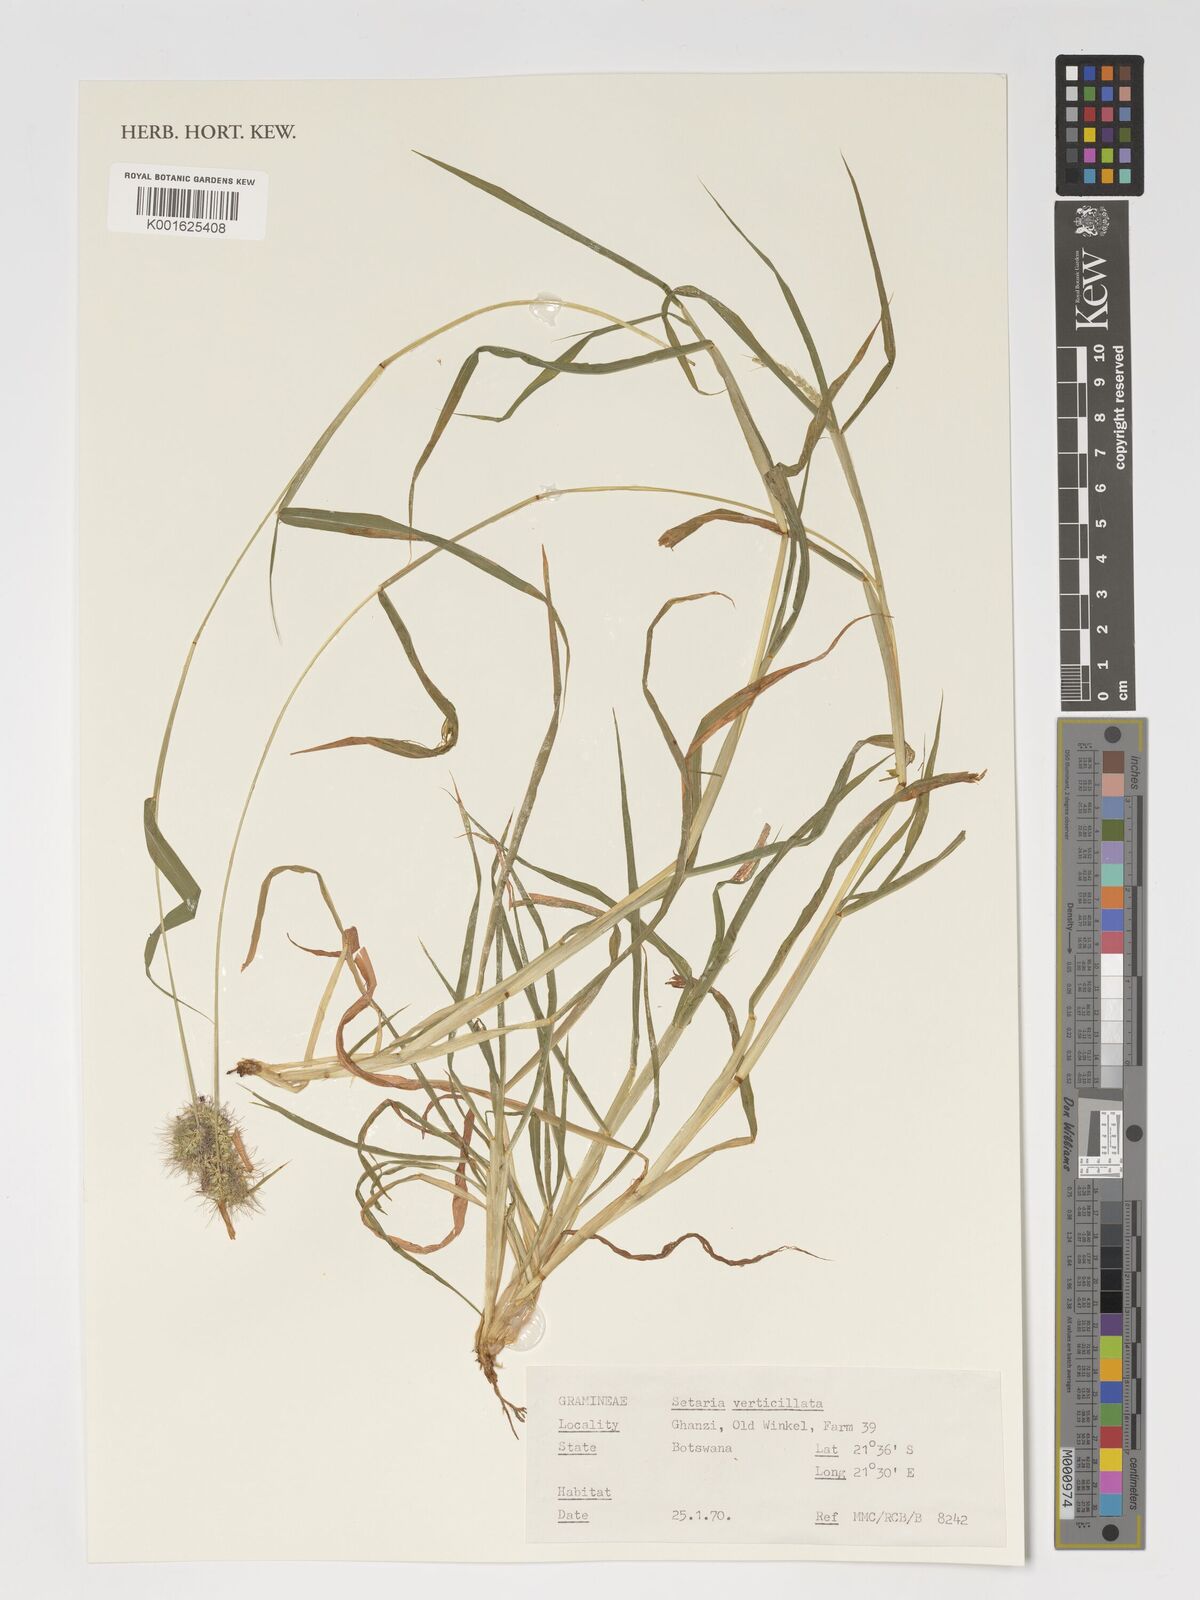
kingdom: Plantae
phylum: Tracheophyta
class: Liliopsida
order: Poales
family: Poaceae
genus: Setaria
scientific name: Setaria verticillata
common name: Hooked bristlegrass
